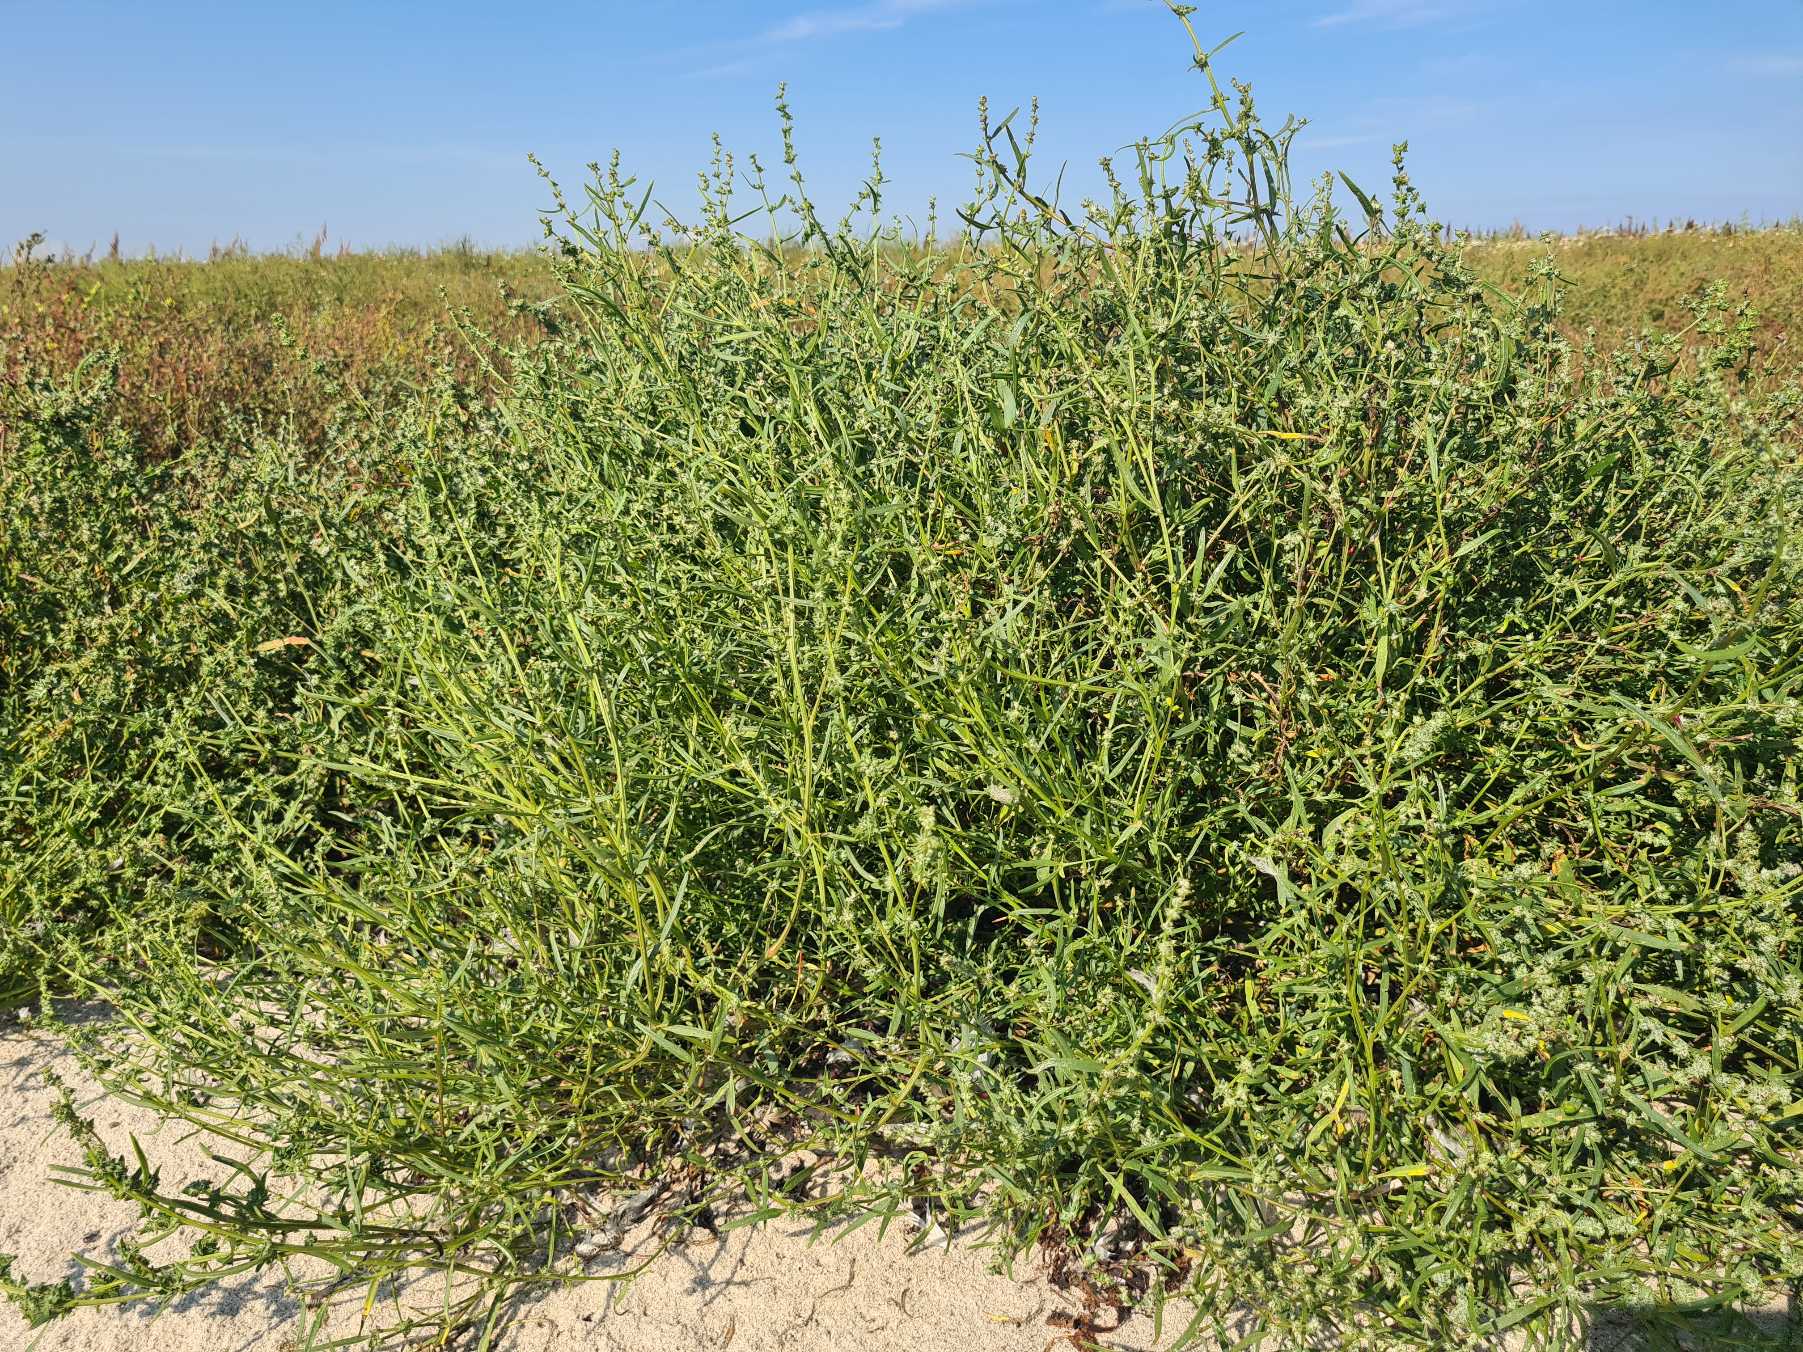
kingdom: Plantae
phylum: Tracheophyta
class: Magnoliopsida
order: Caryophyllales
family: Amaranthaceae
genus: Atriplex
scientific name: Atriplex littoralis
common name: Strand-mælde
